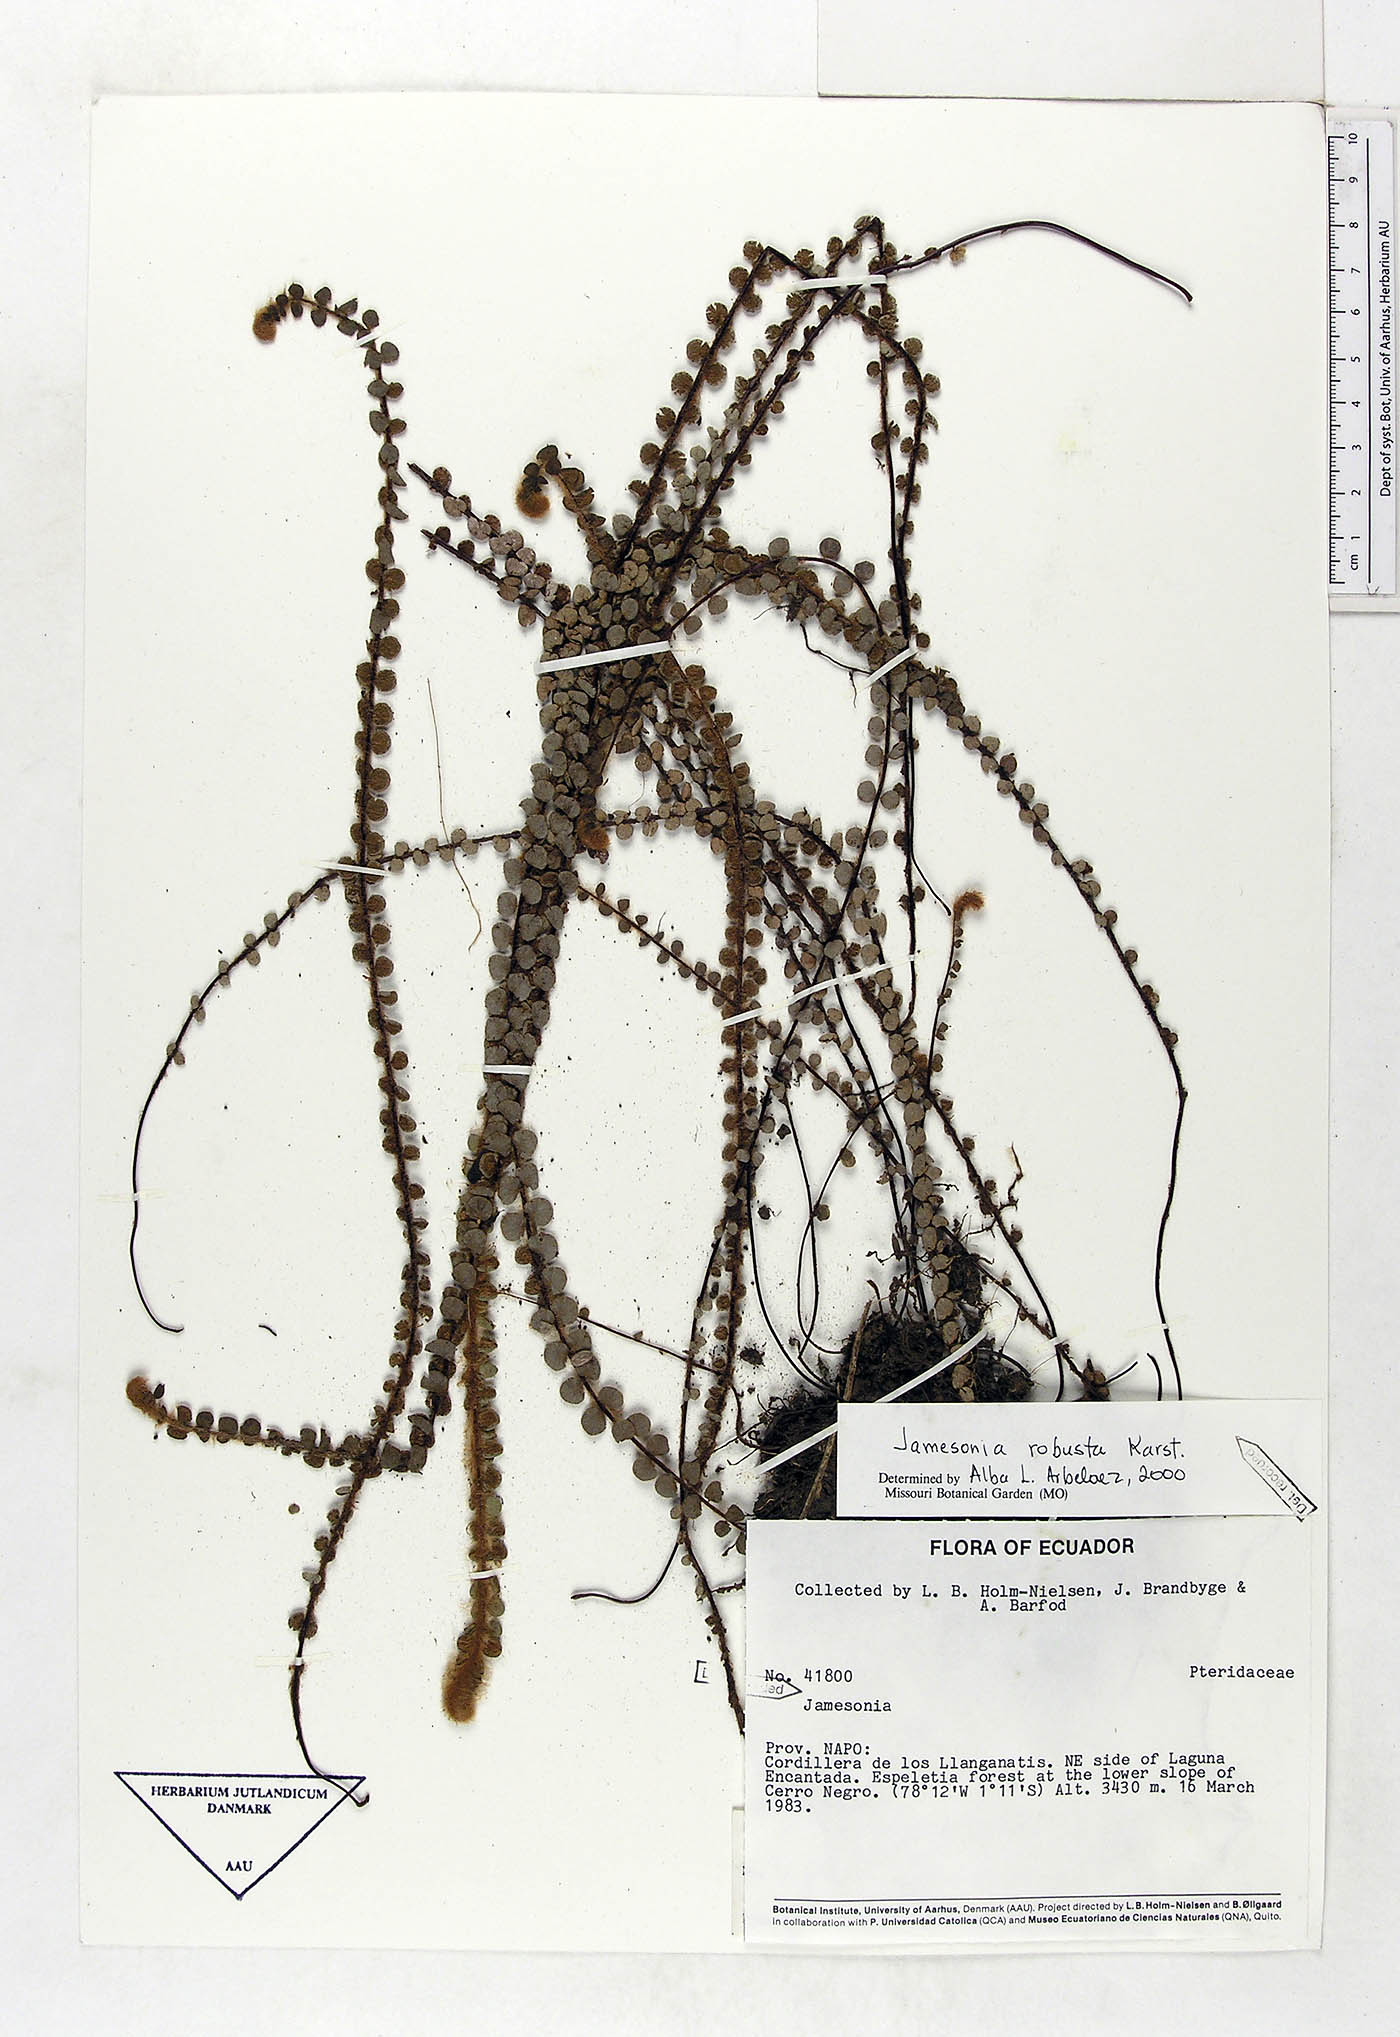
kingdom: Plantae
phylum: Tracheophyta
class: Polypodiopsida
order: Polypodiales
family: Pteridaceae
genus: Jamesonia
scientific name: Jamesonia robusta
